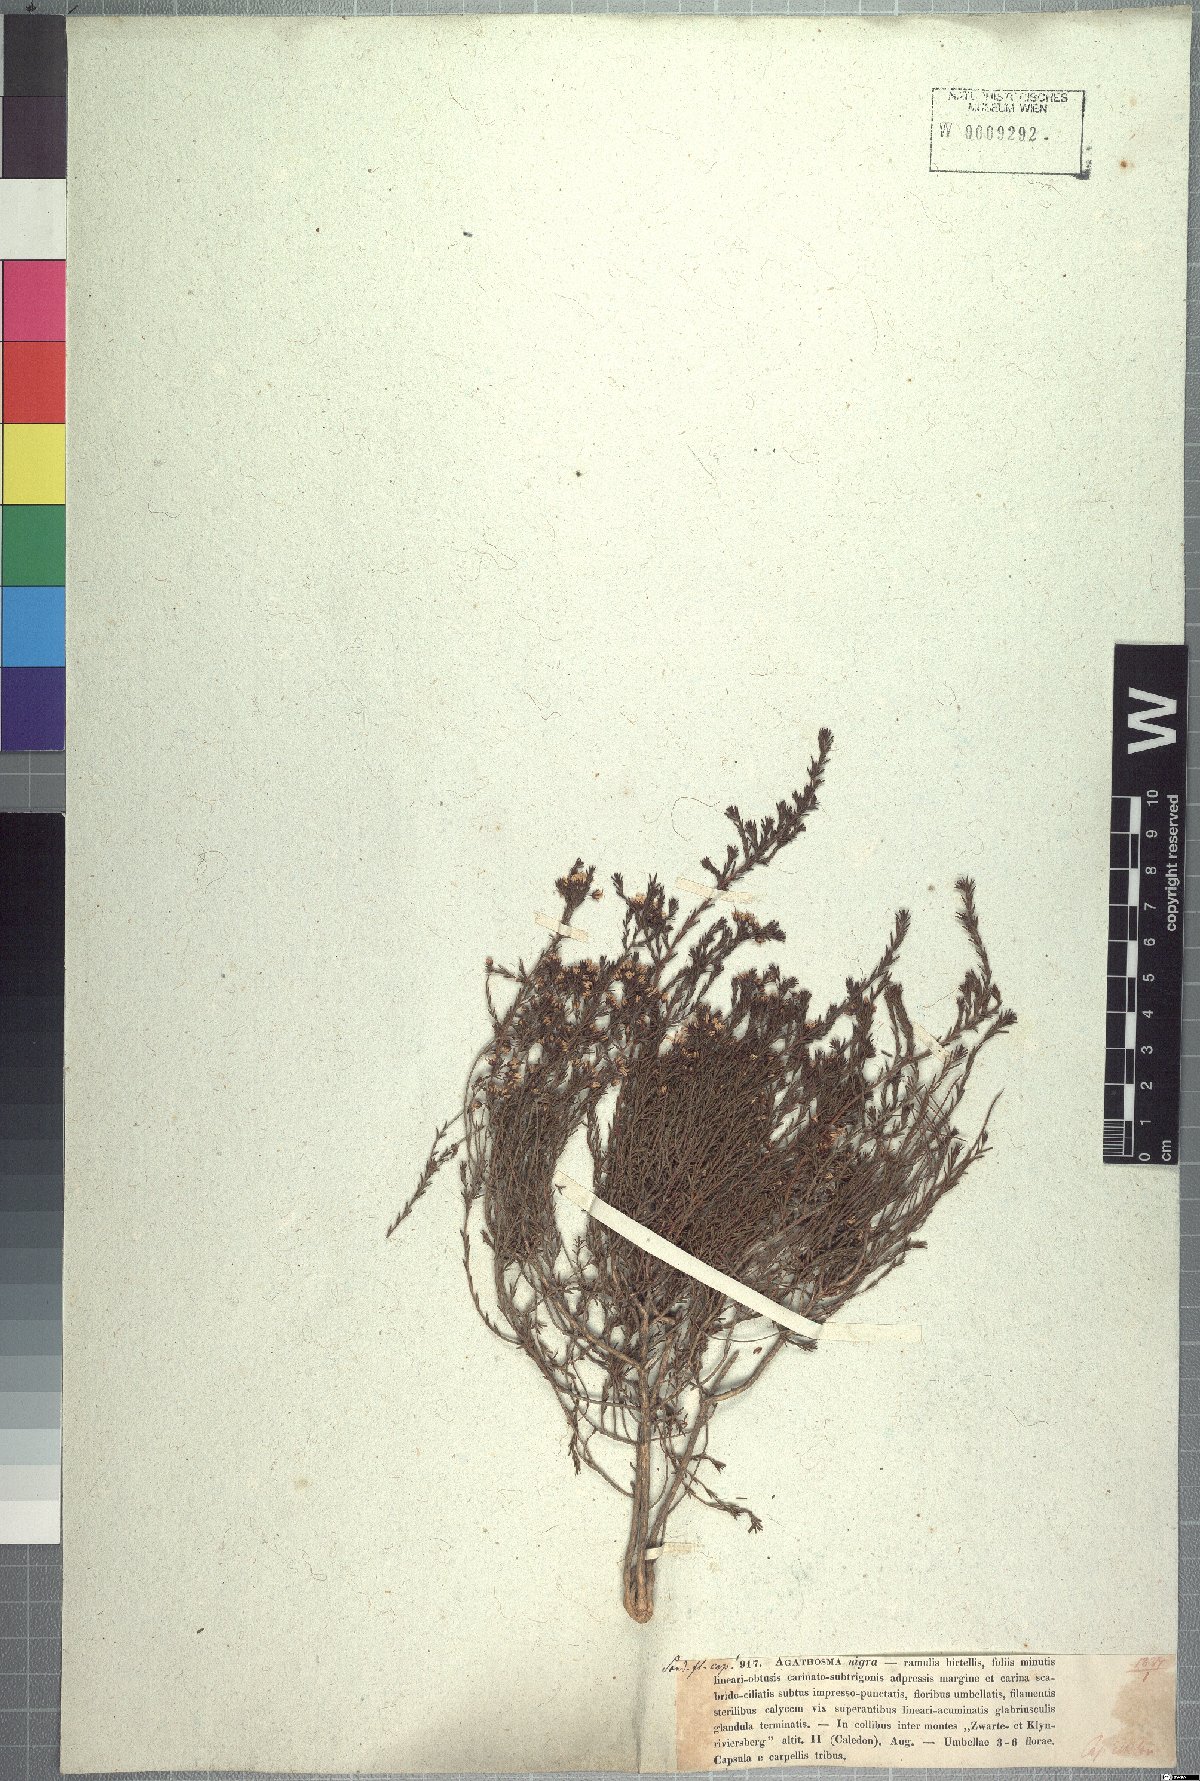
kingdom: Plantae
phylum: Tracheophyta
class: Magnoliopsida
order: Sapindales
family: Rutaceae
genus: Agathosma
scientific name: Agathosma capensis
